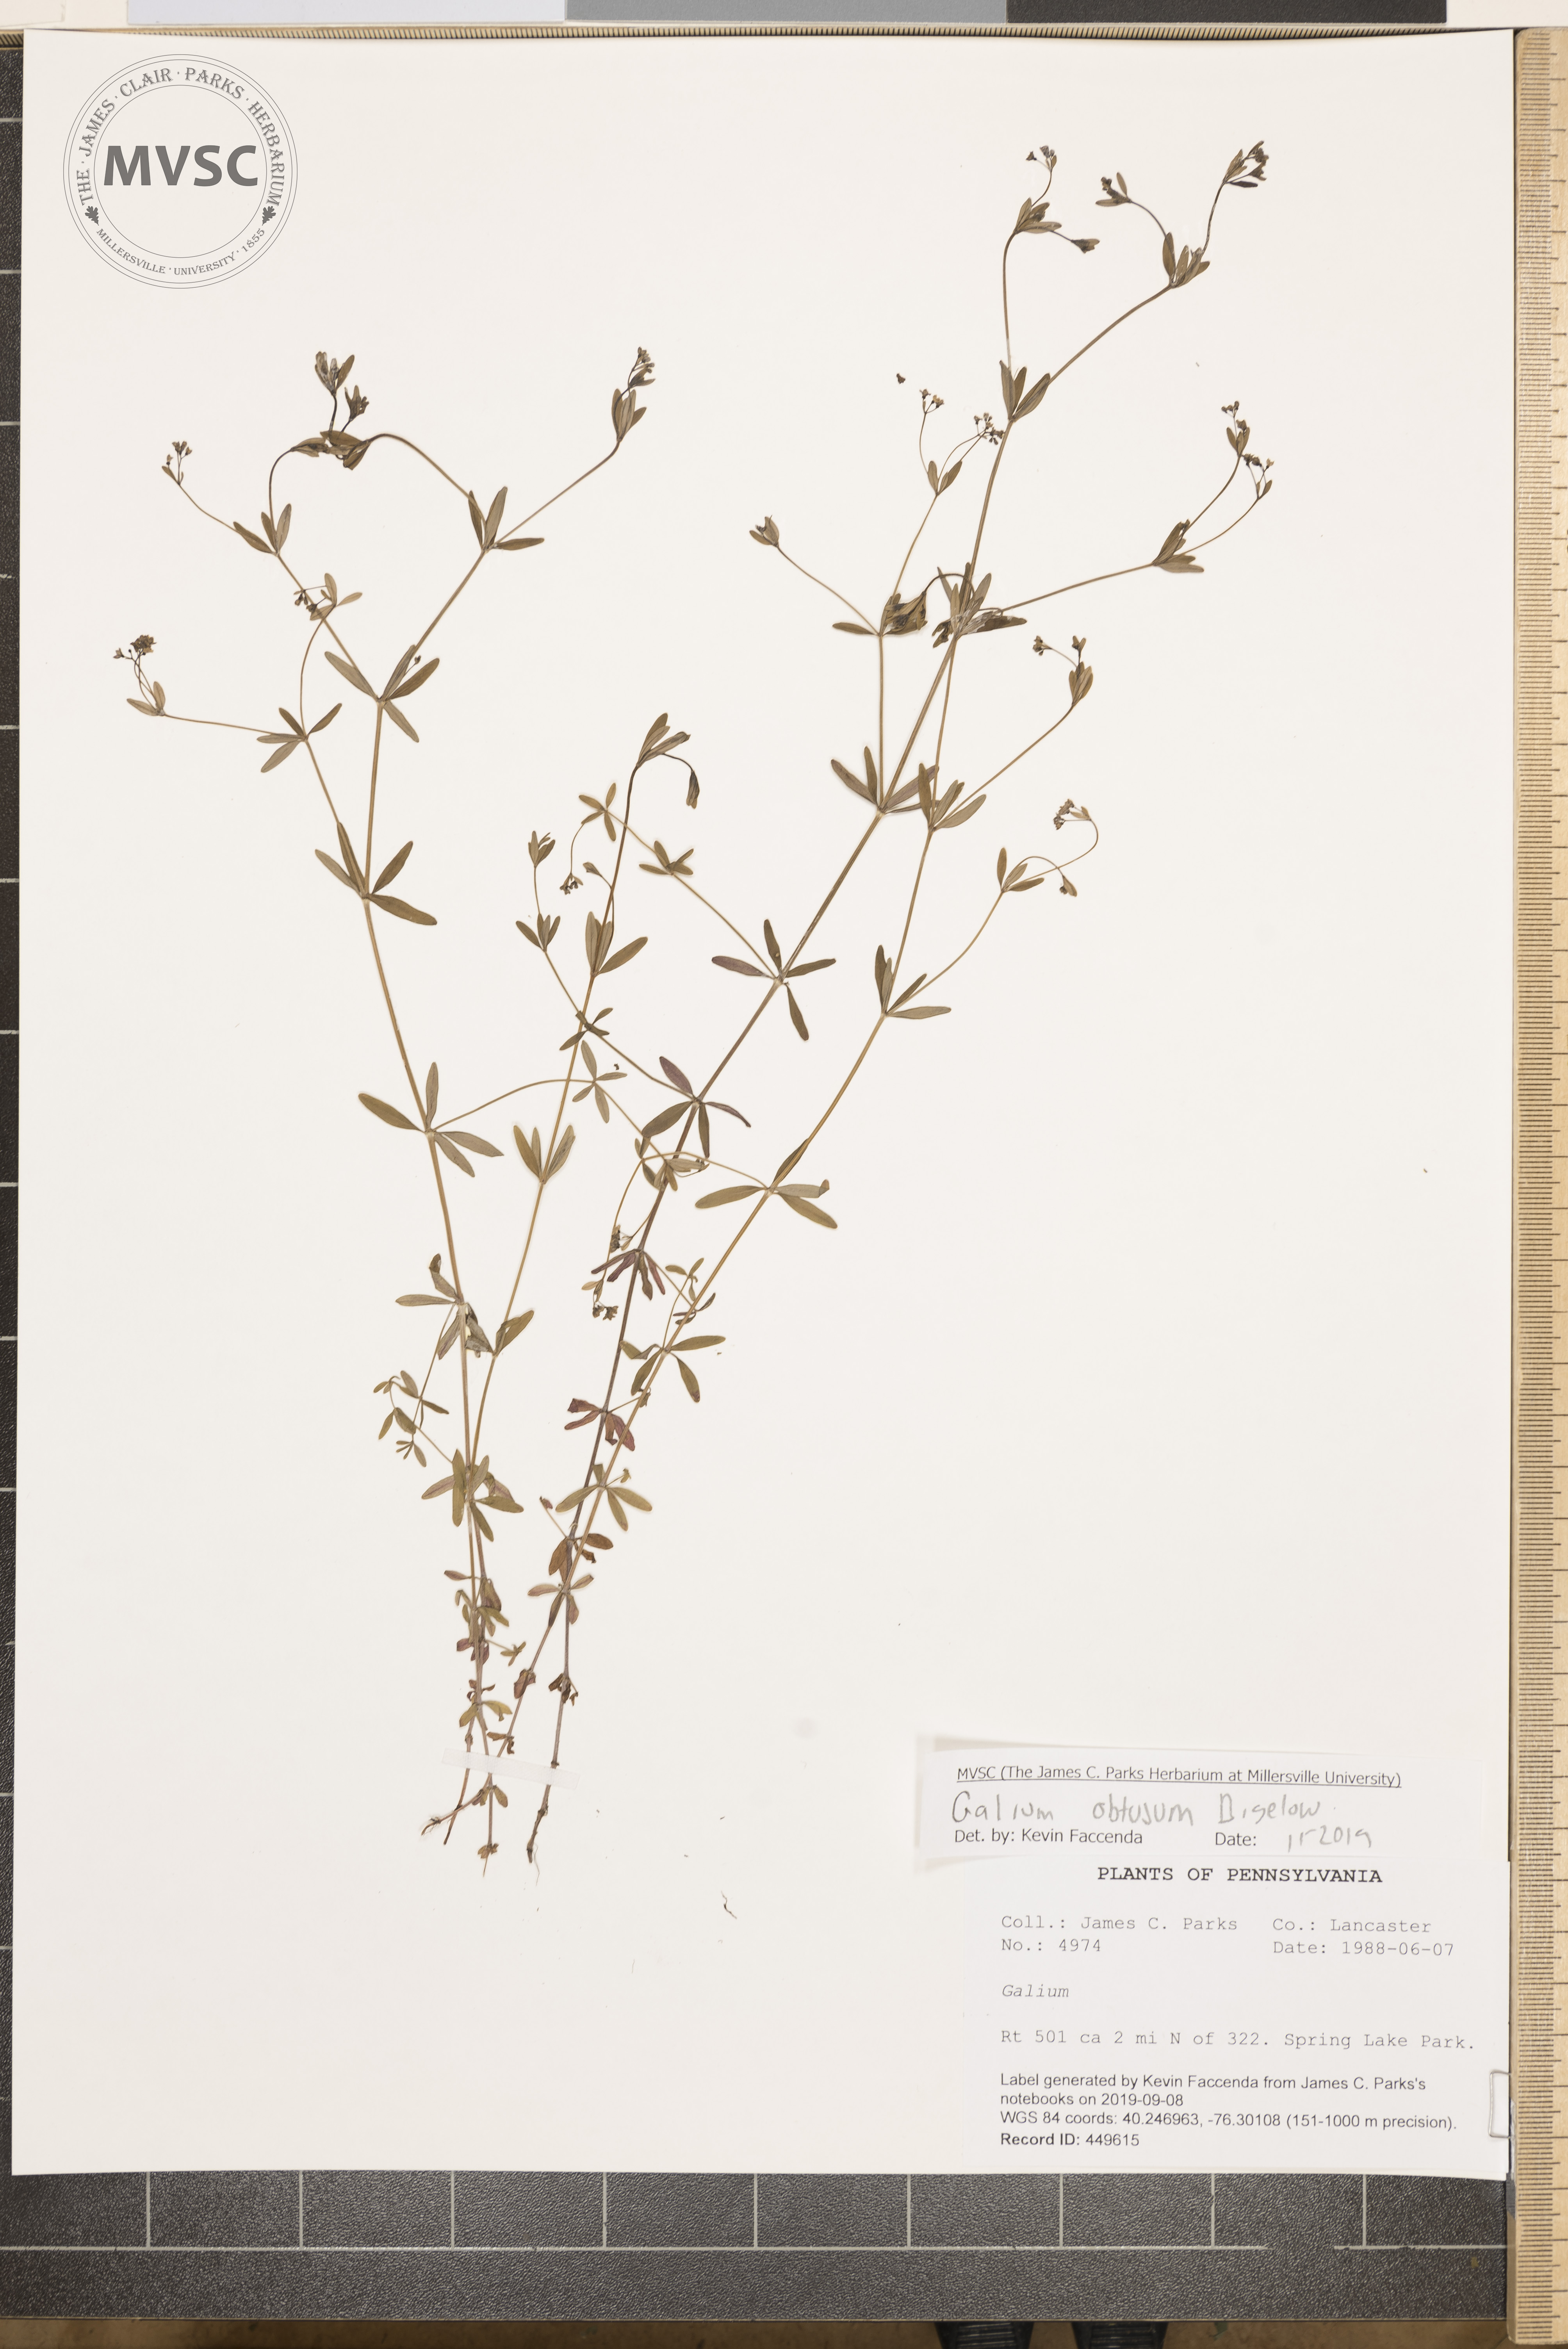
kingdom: Plantae
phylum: Tracheophyta
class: Magnoliopsida
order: Gentianales
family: Rubiaceae
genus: Galium
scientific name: Galium obtusum
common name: Blunt-leaved bedstraw
